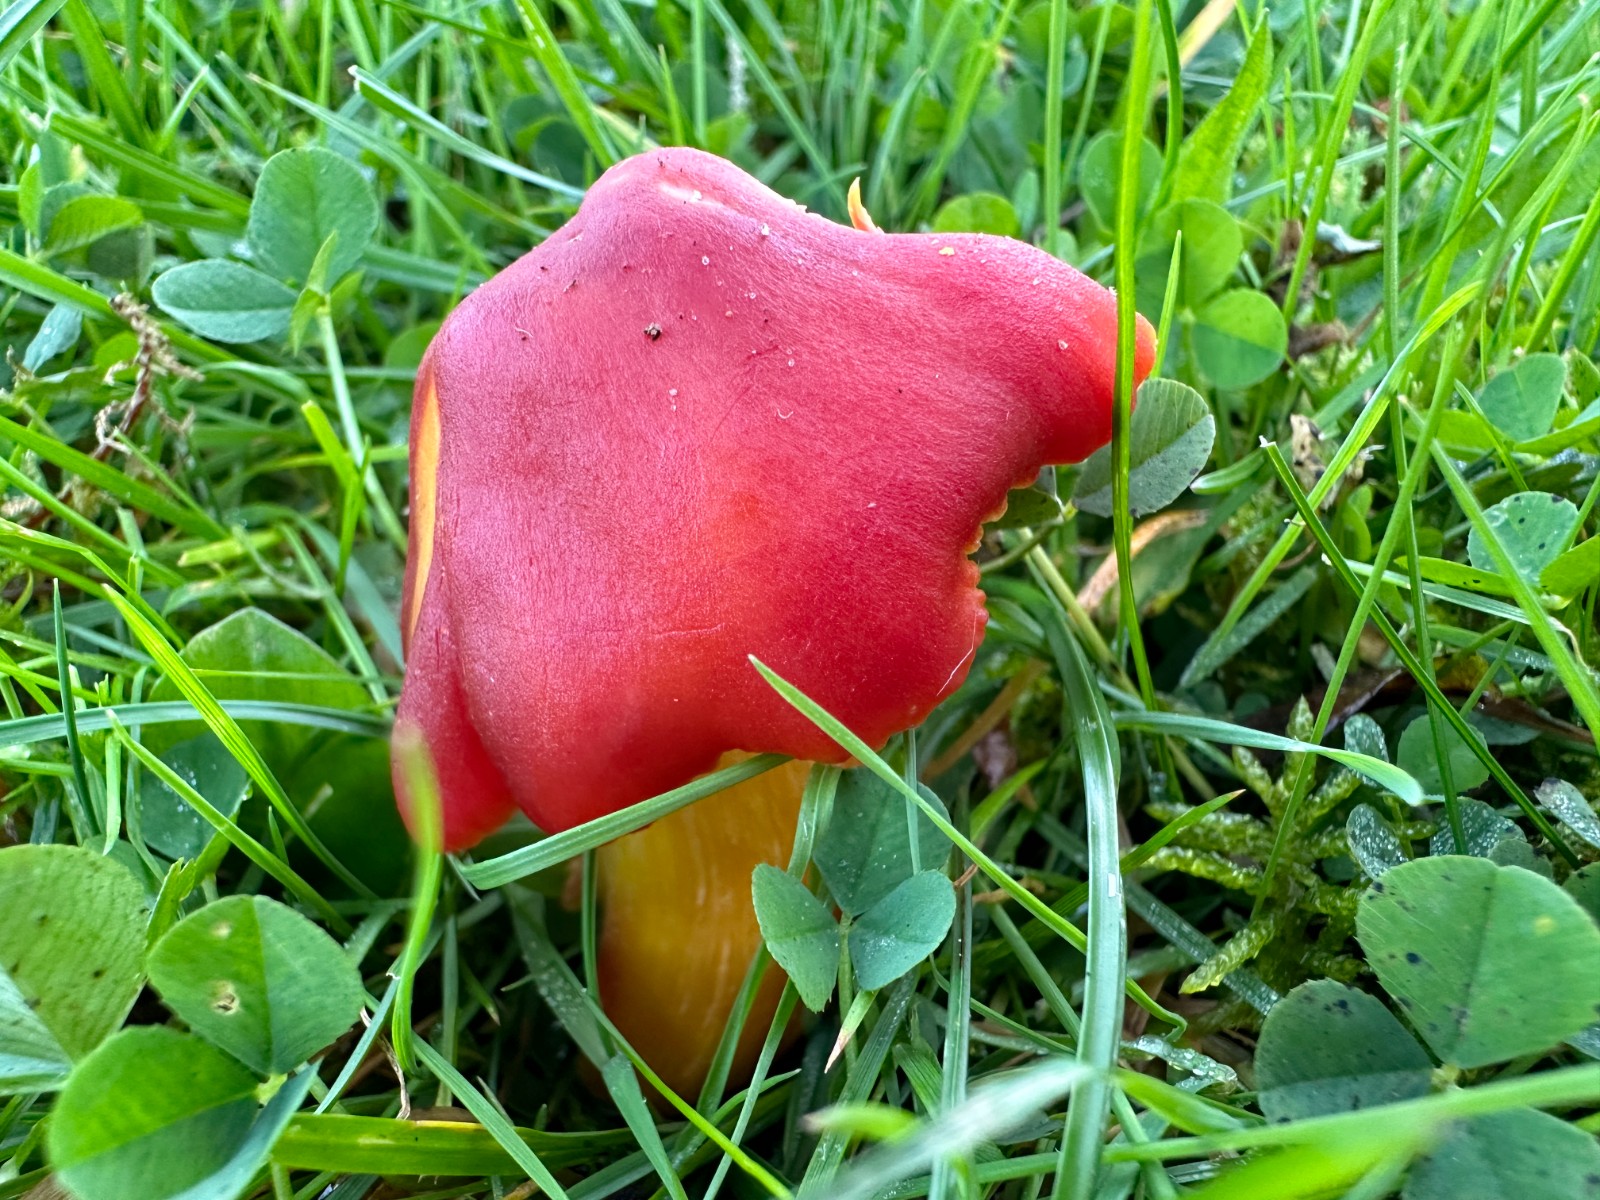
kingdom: Fungi
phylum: Basidiomycota
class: Agaricomycetes
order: Agaricales
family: Hygrophoraceae
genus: Hygrocybe
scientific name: Hygrocybe punicea
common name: skarlagen-vokshat
